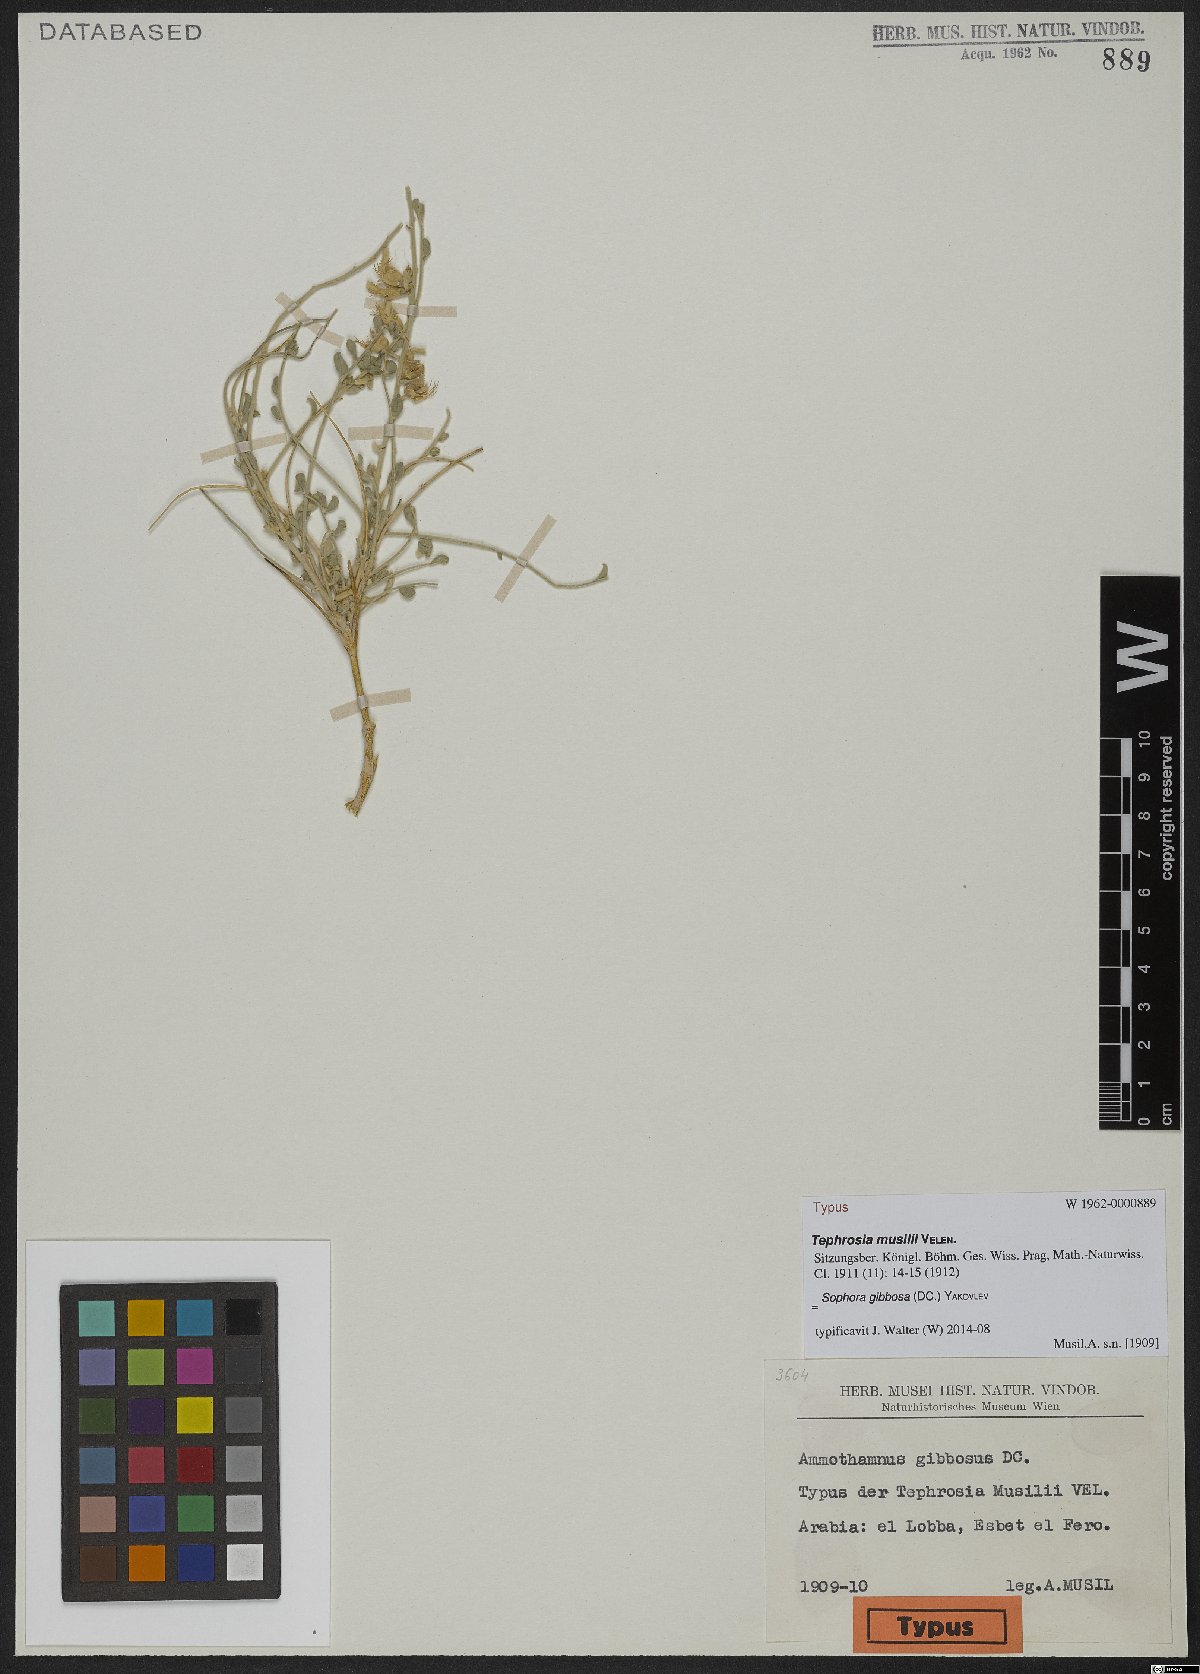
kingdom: Plantae
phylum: Tracheophyta
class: Magnoliopsida
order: Fabales
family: Fabaceae
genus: Sophora
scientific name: Sophora gibbosa
